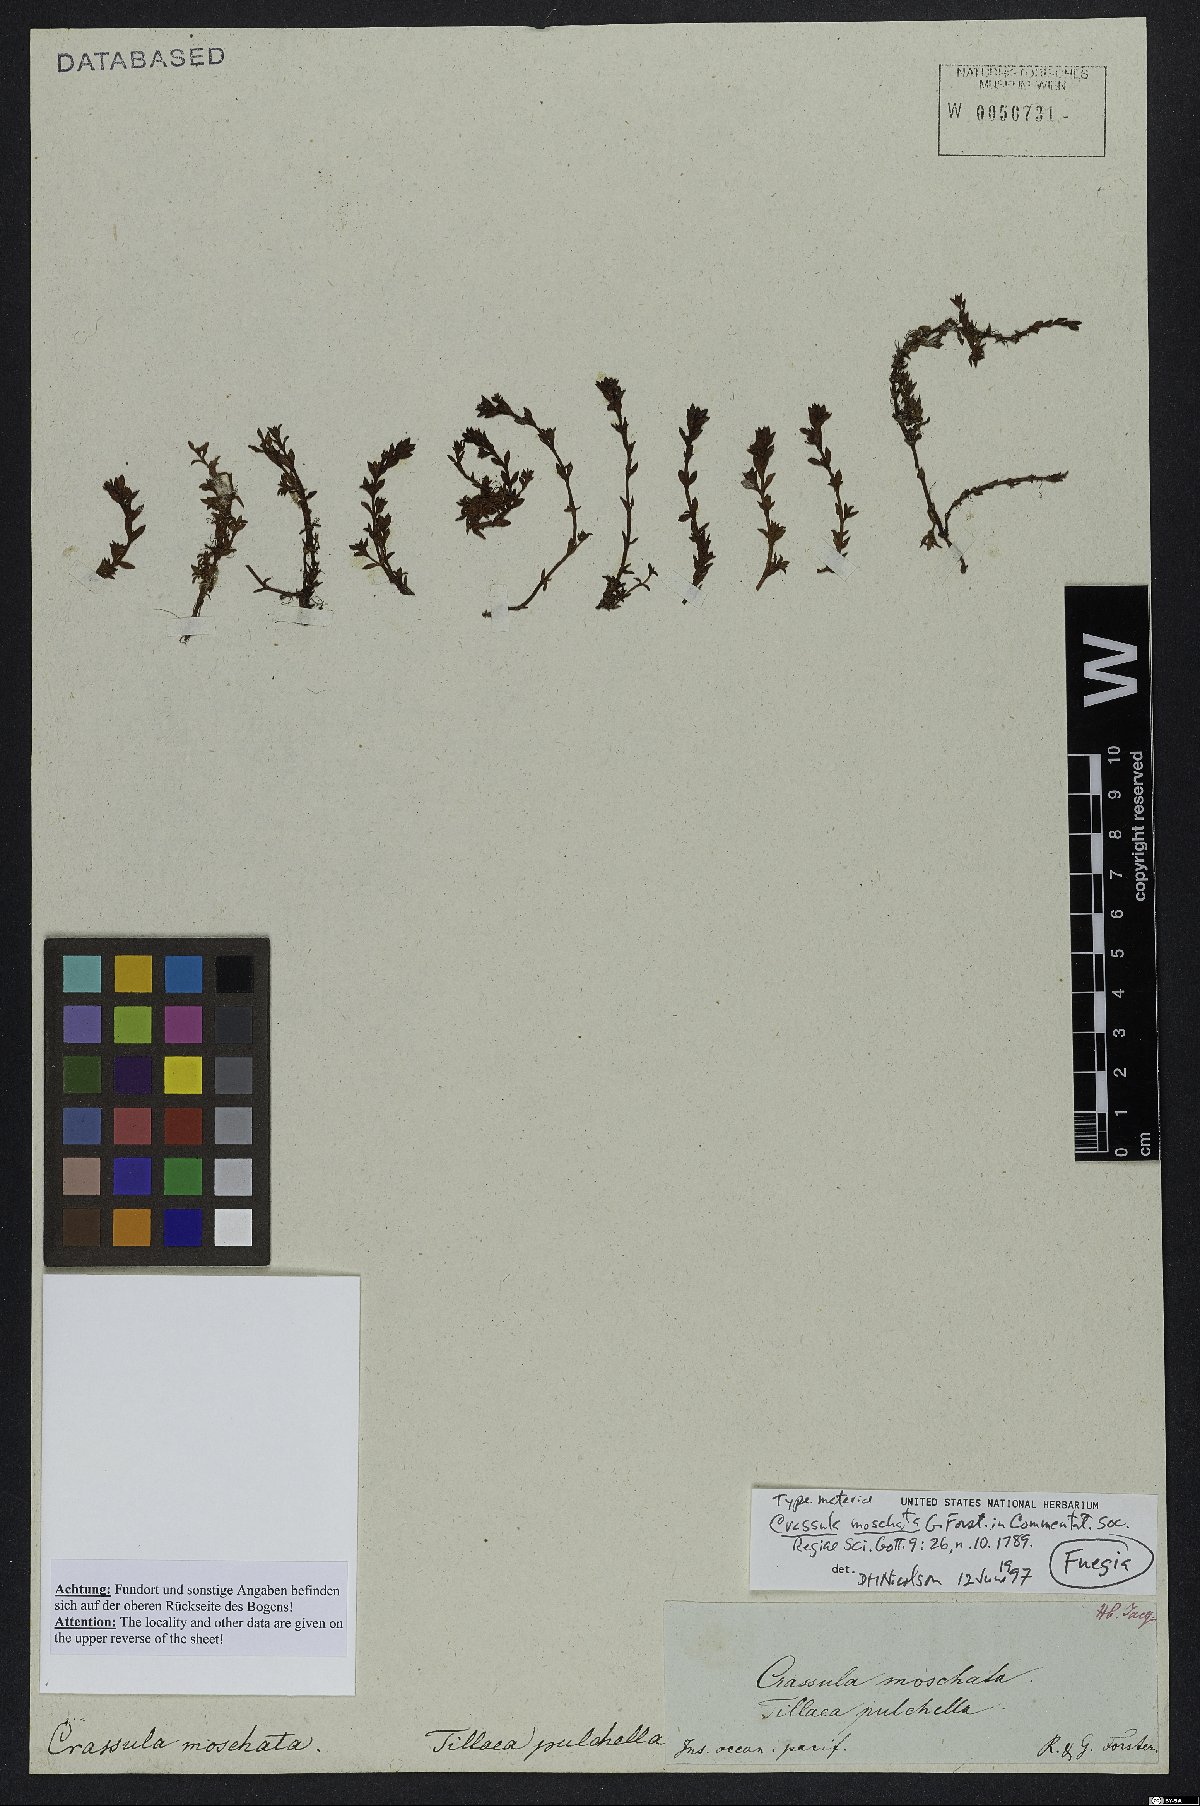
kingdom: Plantae
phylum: Tracheophyta
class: Magnoliopsida
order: Saxifragales
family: Crassulaceae
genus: Crassula
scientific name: Crassula moschata
